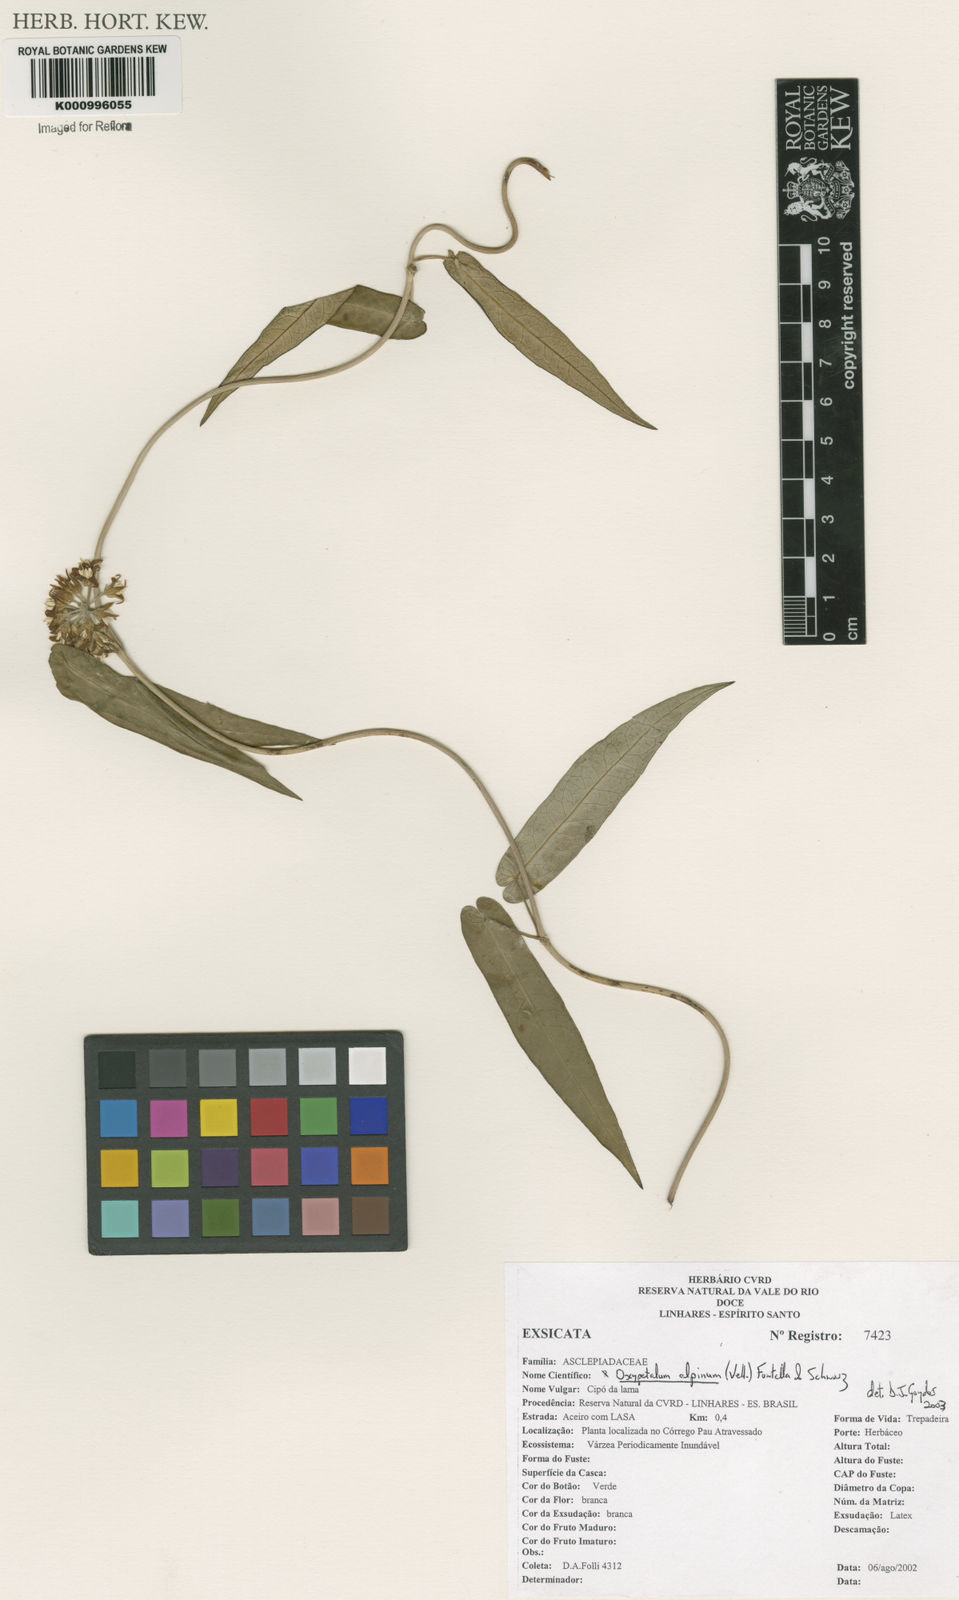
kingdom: Plantae
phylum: Tracheophyta
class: Magnoliopsida
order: Gentianales
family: Apocynaceae
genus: Oxypetalum
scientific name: Oxypetalum alpinum
